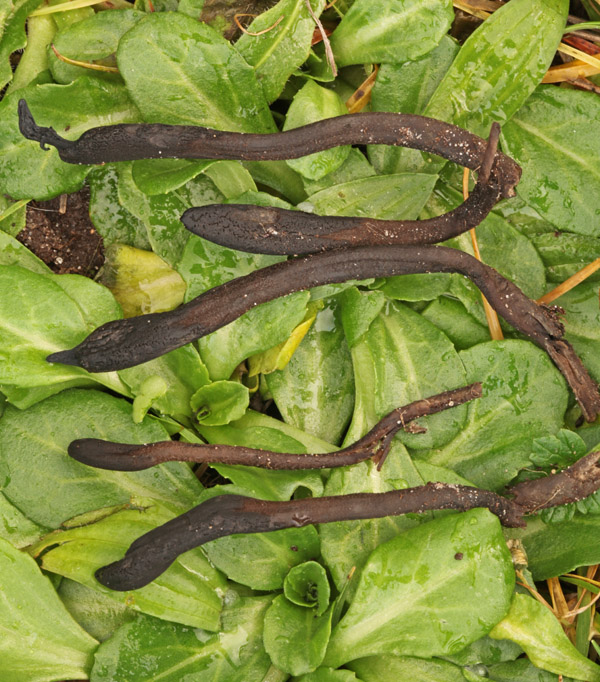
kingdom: Fungi
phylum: Ascomycota
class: Geoglossomycetes
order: Geoglossales
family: Geoglossaceae
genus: Geoglossum
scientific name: Geoglossum fallax
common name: småskællet jordtunge
